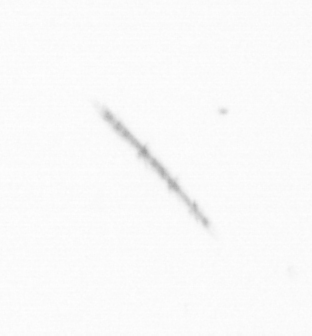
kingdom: Chromista
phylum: Ochrophyta
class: Bacillariophyceae
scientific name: Bacillariophyceae
